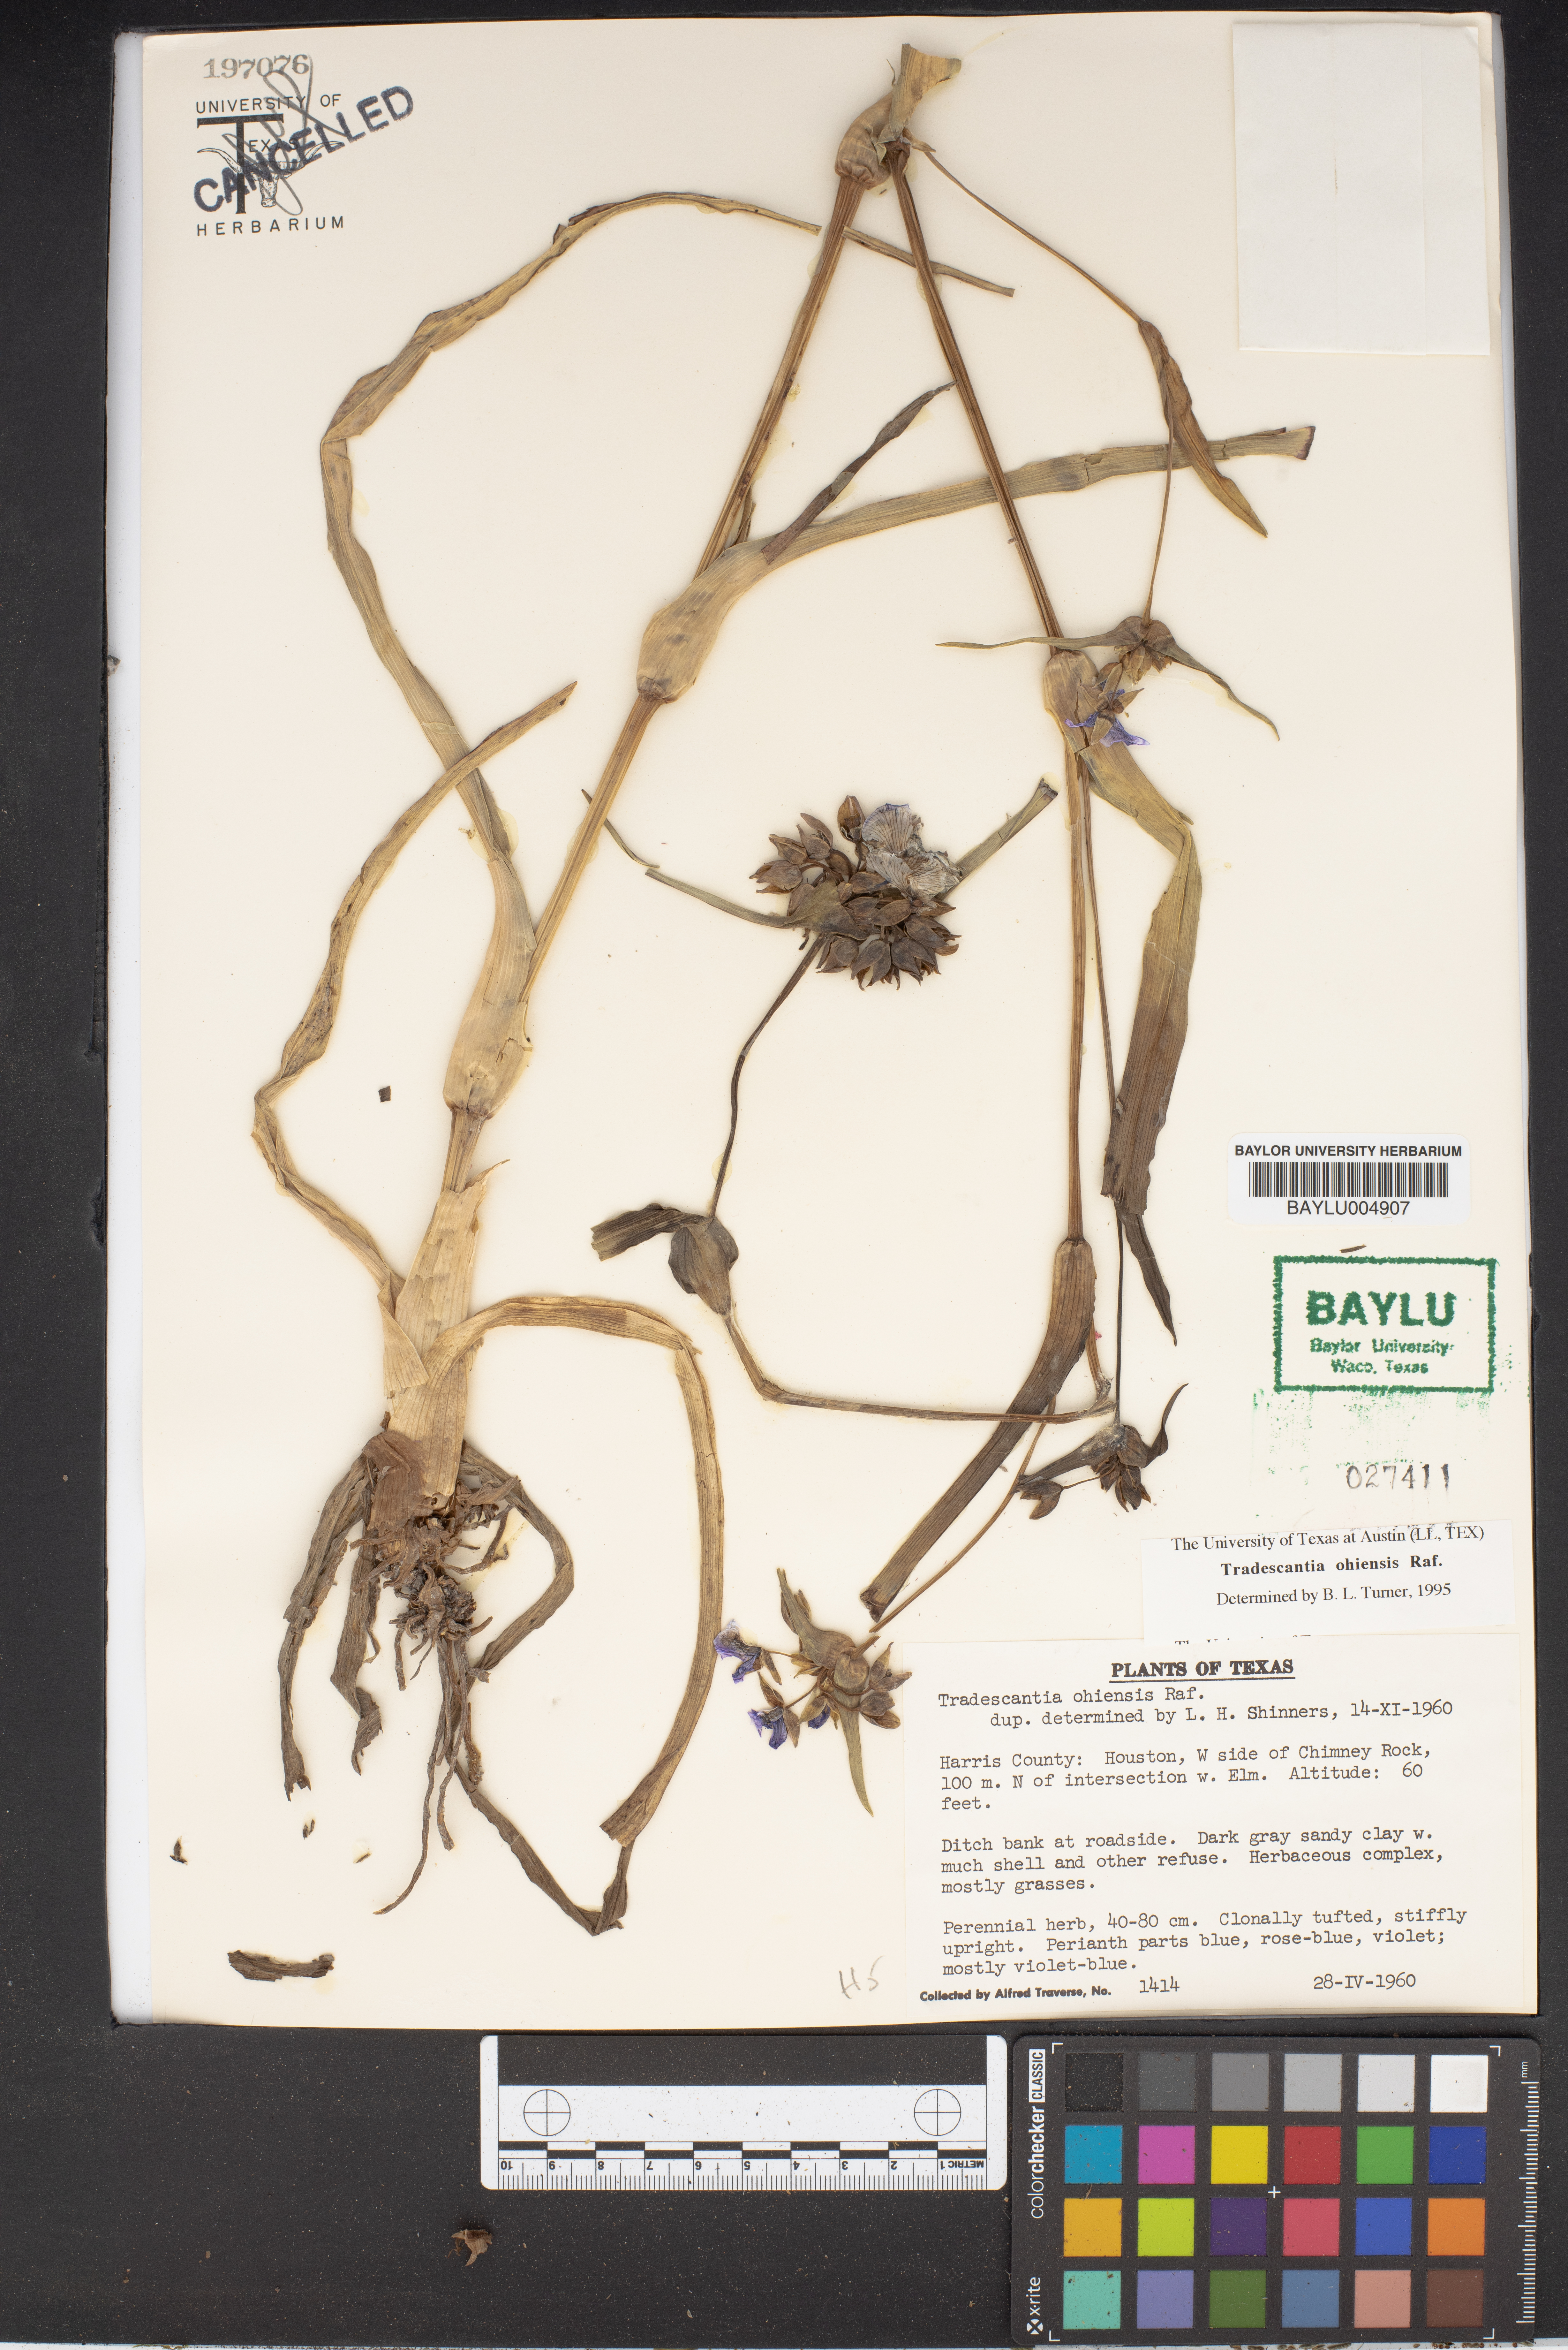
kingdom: Plantae
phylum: Tracheophyta
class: Liliopsida
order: Commelinales
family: Commelinaceae
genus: Tradescantia
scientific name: Tradescantia ohiensis
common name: Ohio spiderwort
